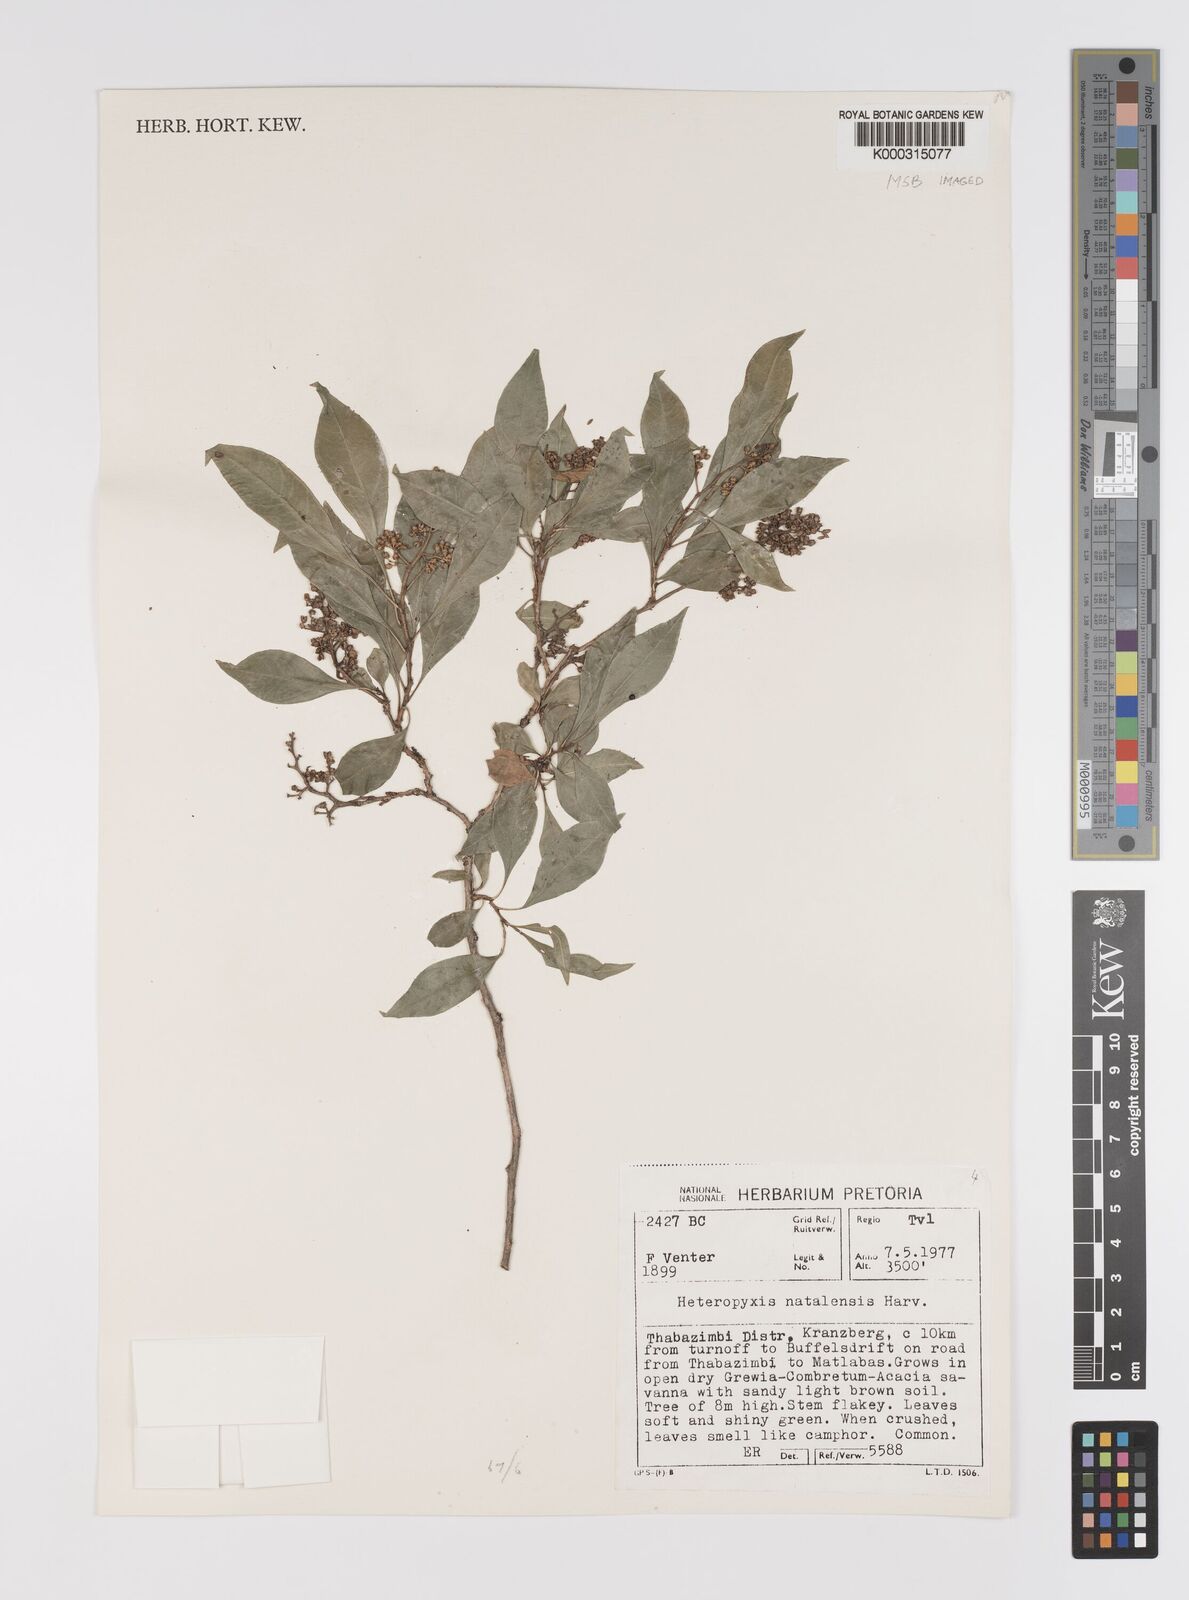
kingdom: Plantae
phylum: Tracheophyta
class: Magnoliopsida
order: Myrtales
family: Myrtaceae
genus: Heteropyxis
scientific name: Heteropyxis natalensis
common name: Lavender tree
